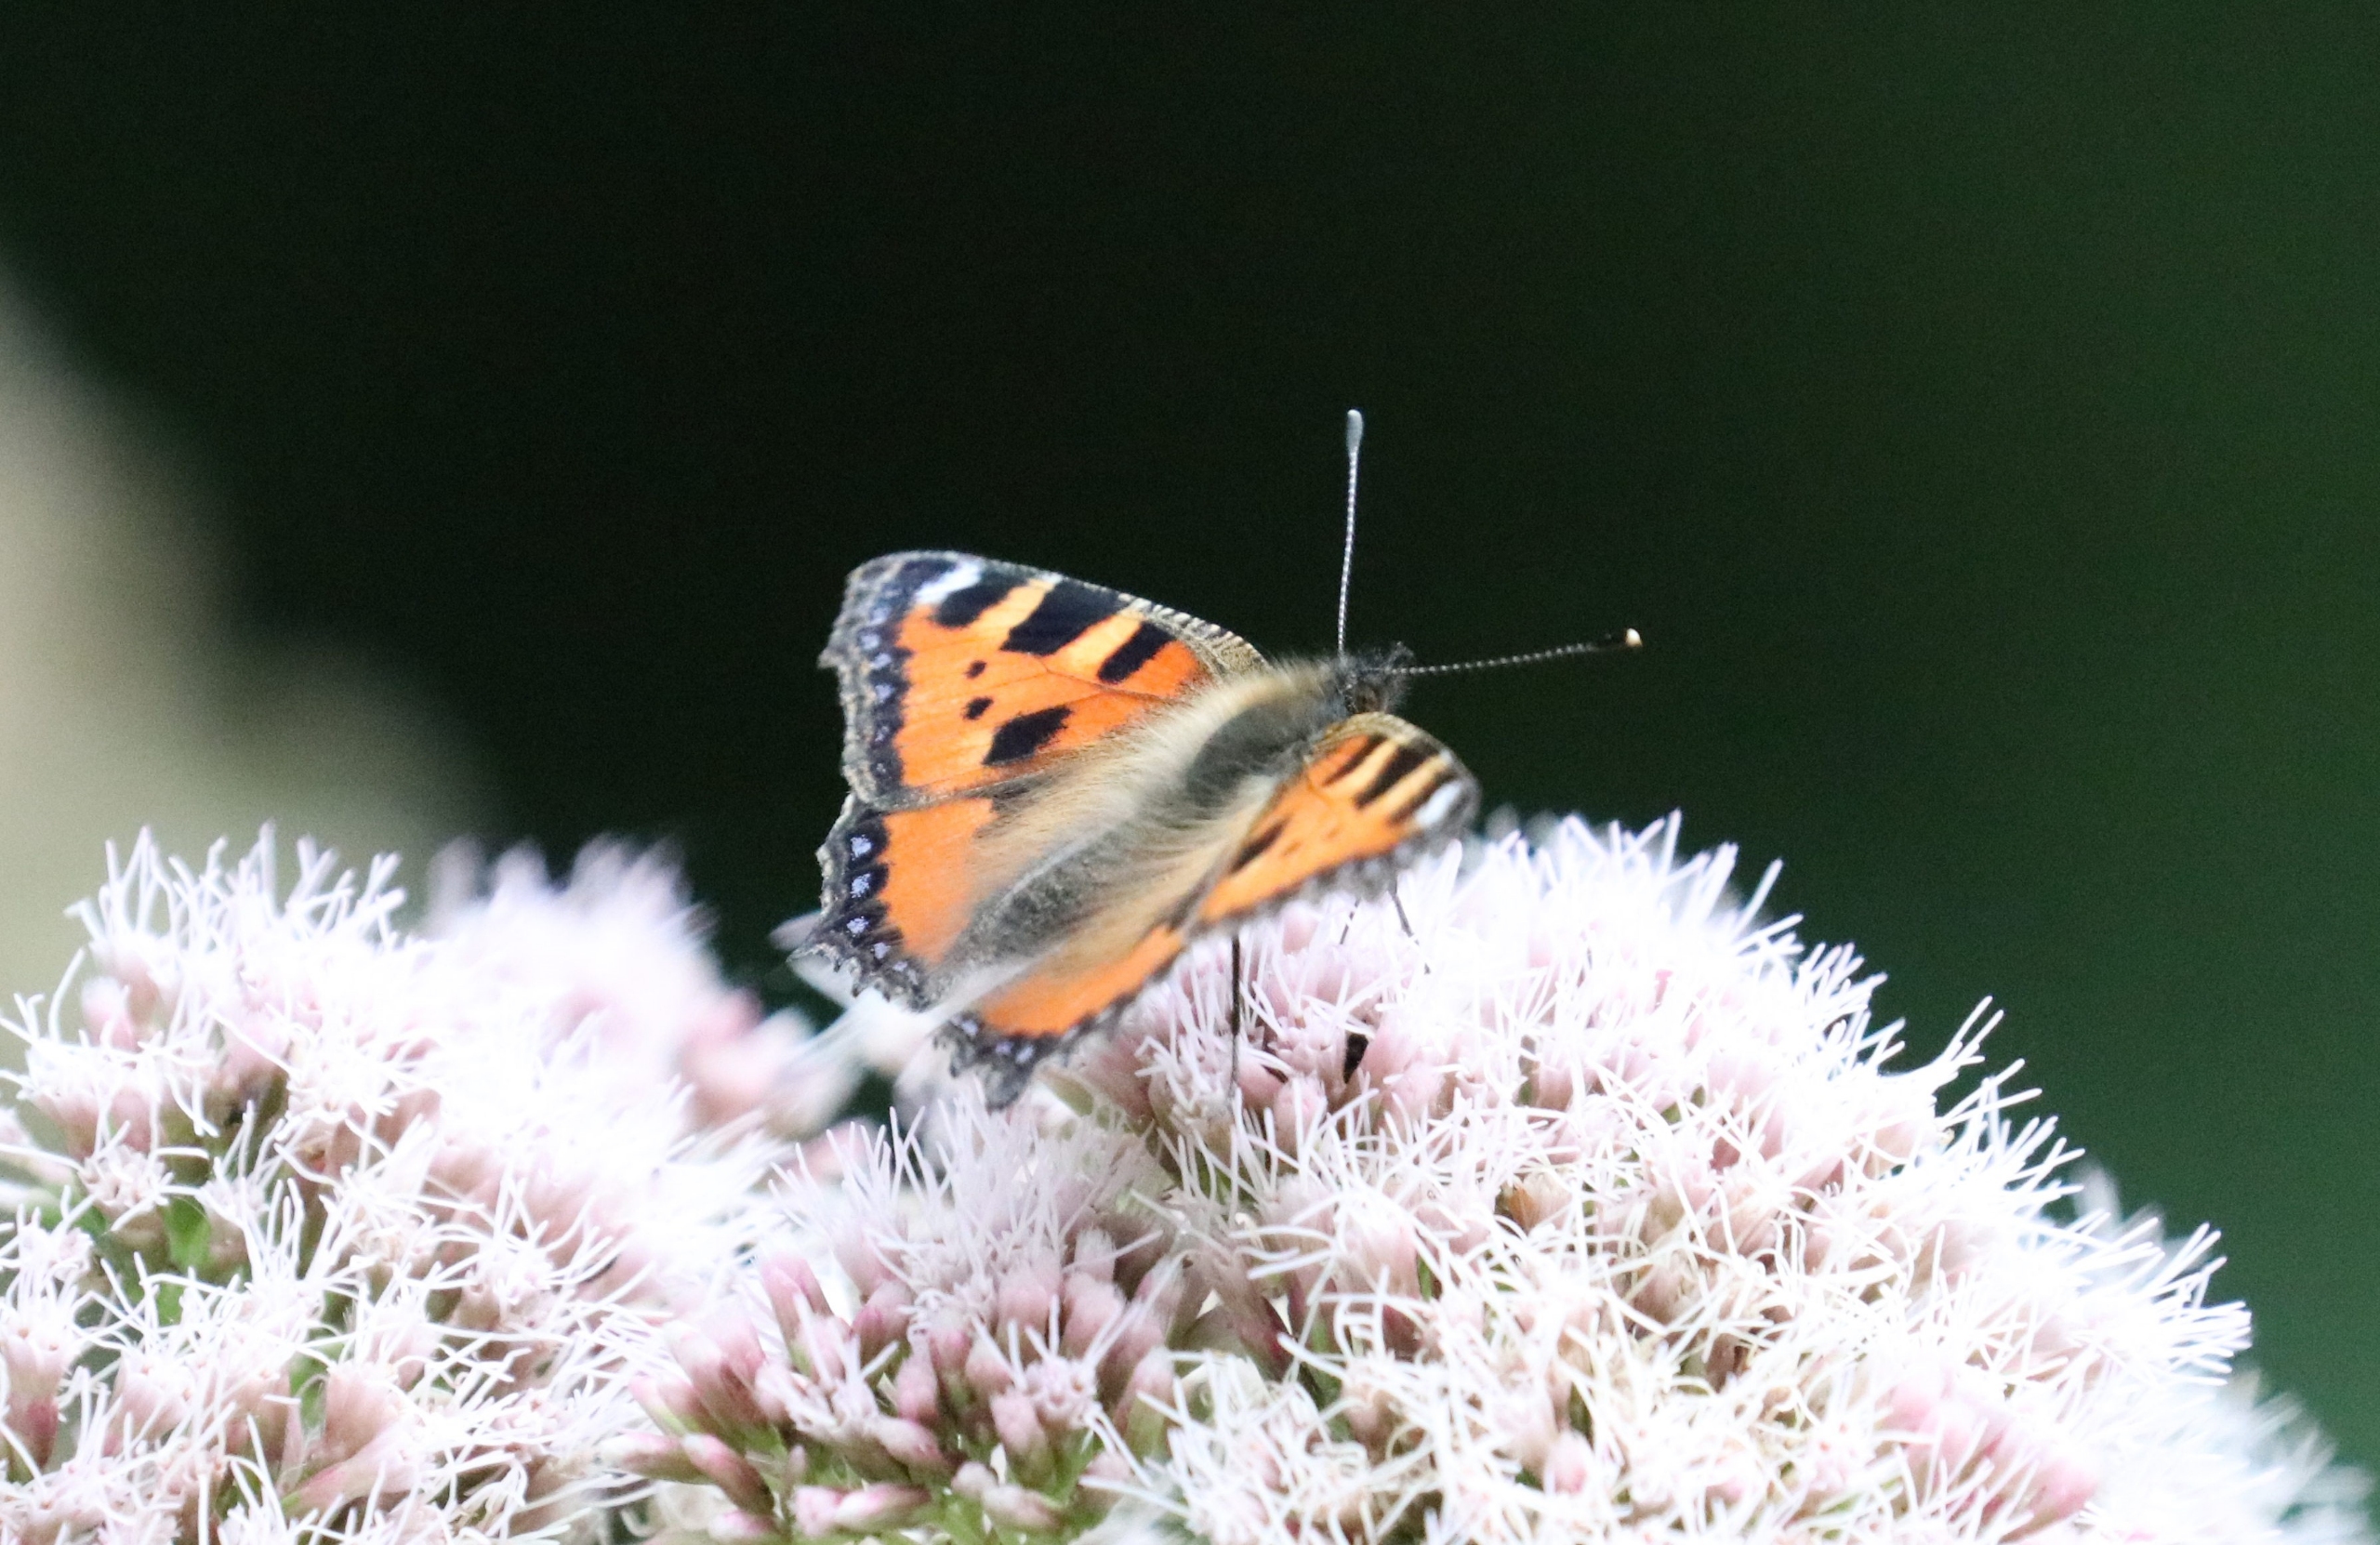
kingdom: Animalia
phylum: Arthropoda
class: Insecta
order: Lepidoptera
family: Nymphalidae
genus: Aglais
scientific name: Aglais urticae
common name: Nældens takvinge
